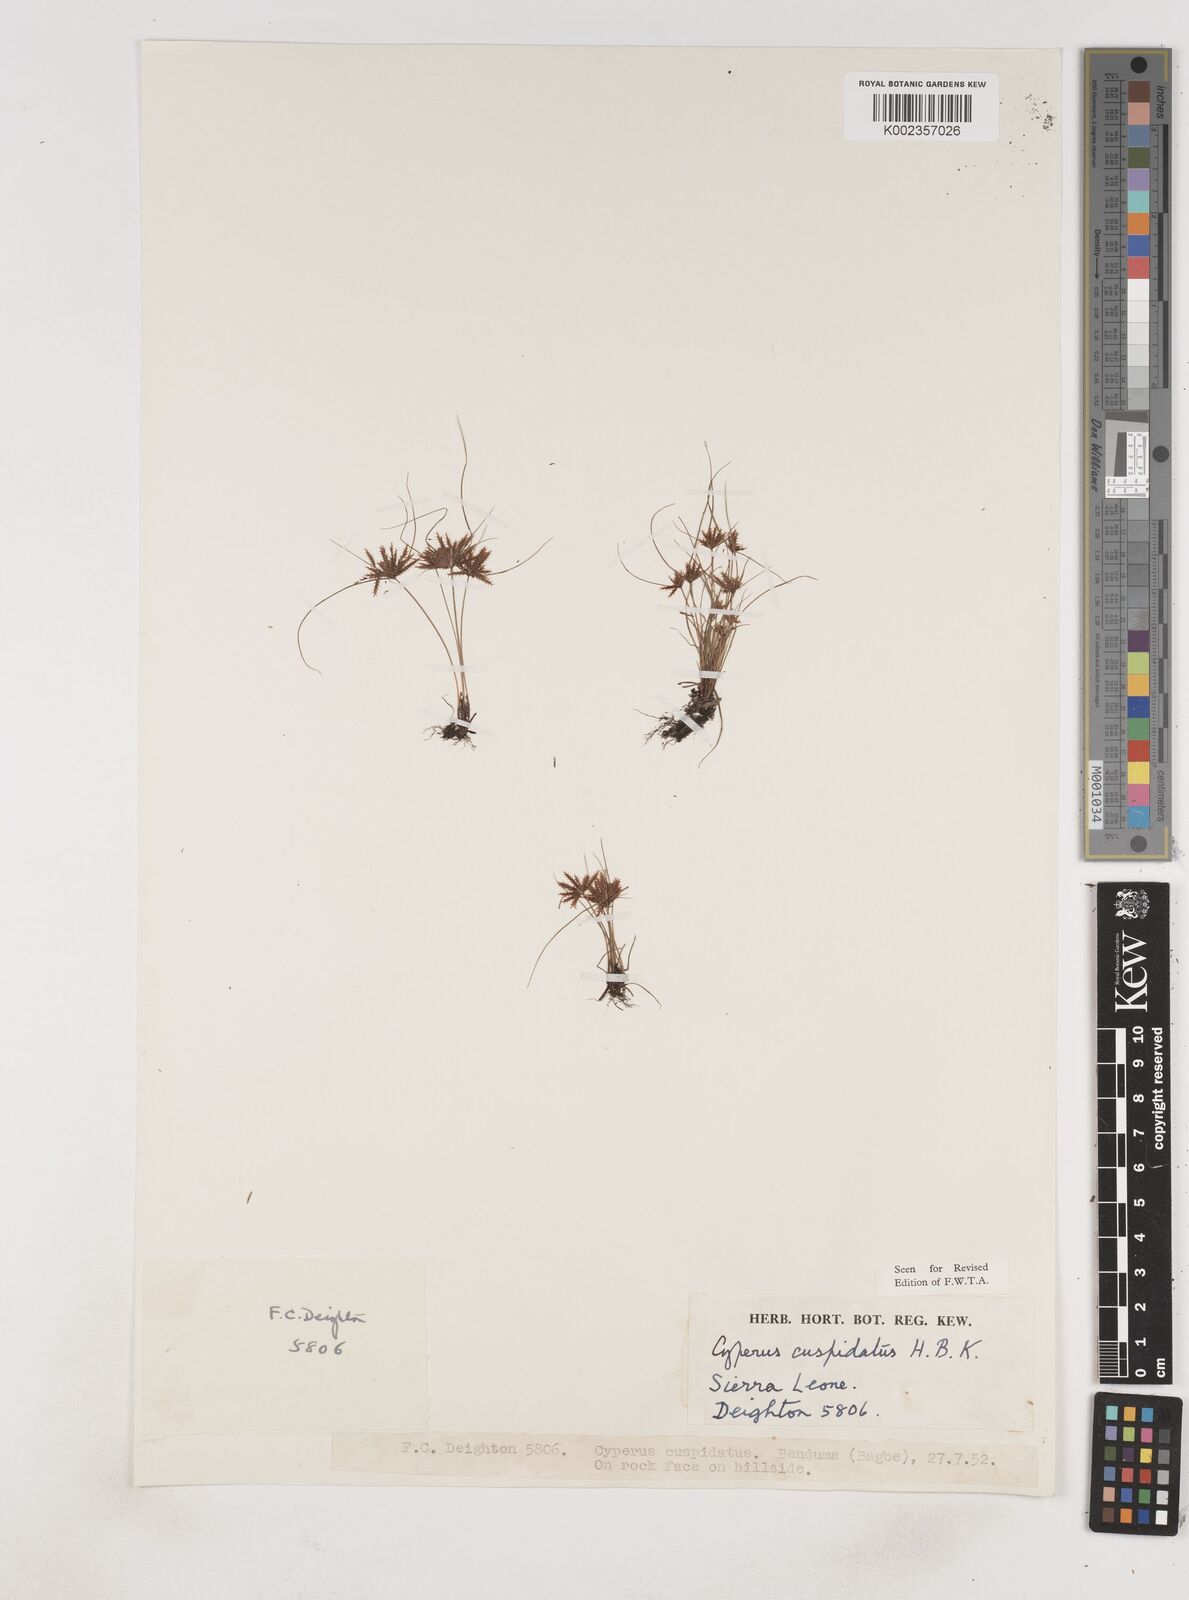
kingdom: Plantae
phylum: Tracheophyta
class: Liliopsida
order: Poales
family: Cyperaceae
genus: Cyperus
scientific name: Cyperus
